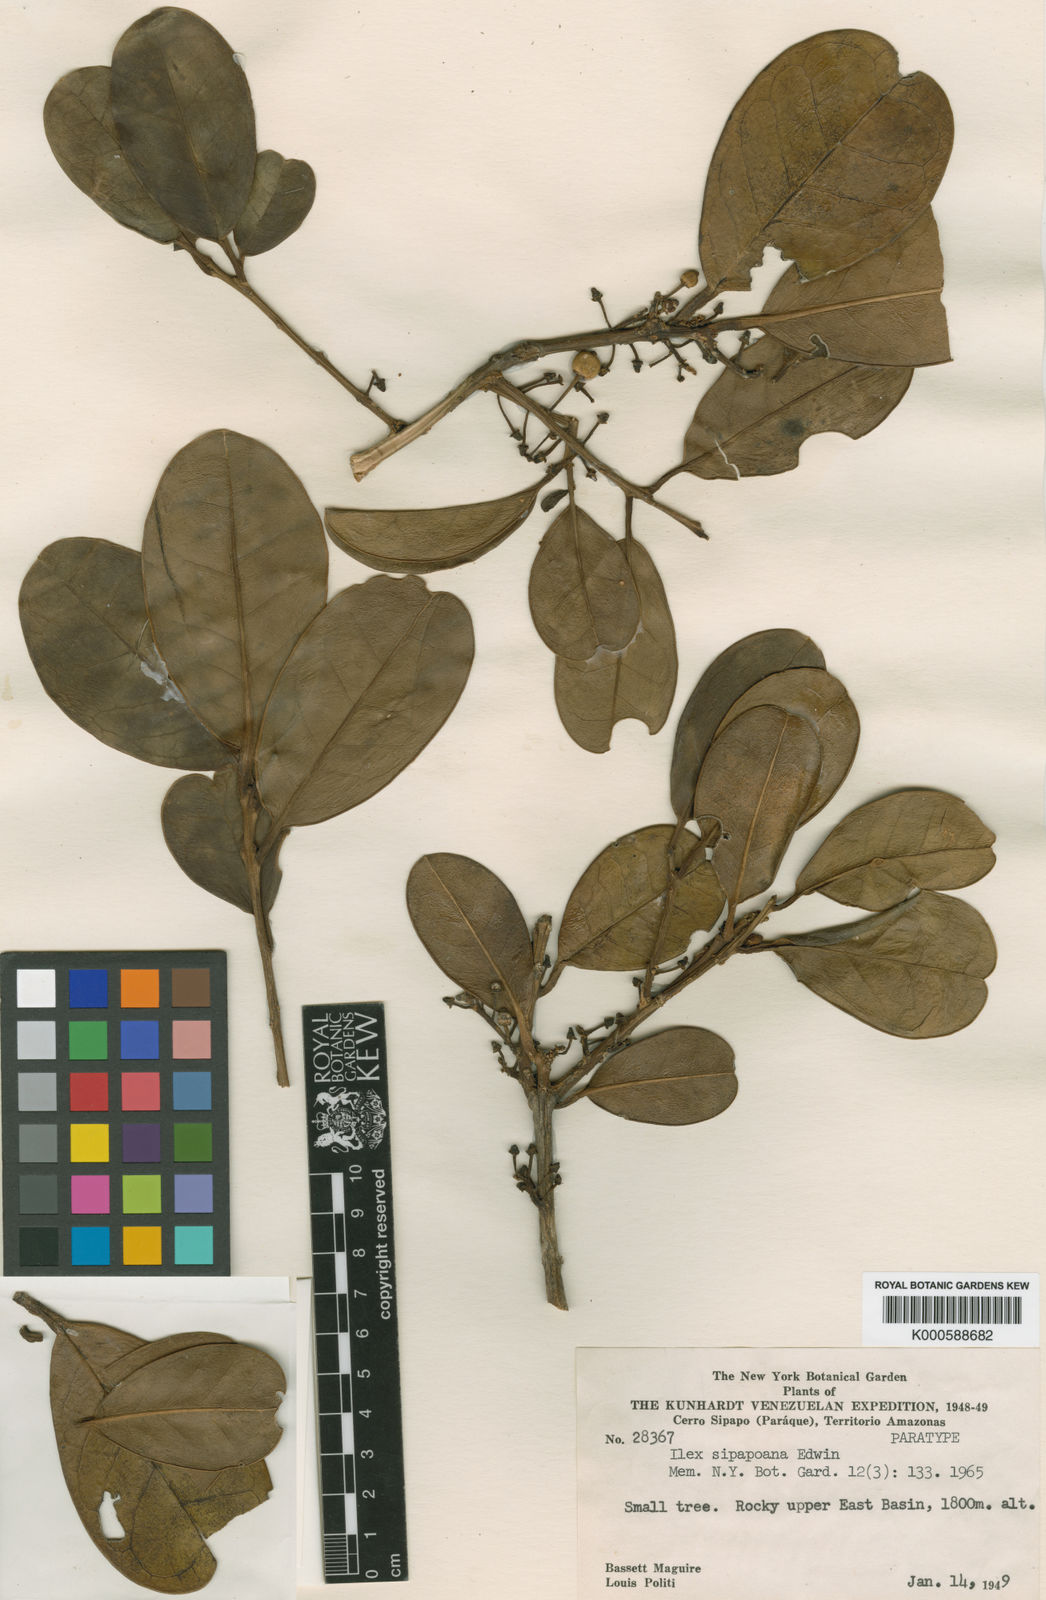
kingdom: Plantae
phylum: Tracheophyta
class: Magnoliopsida
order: Aquifoliales
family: Aquifoliaceae
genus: Ilex
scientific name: Ilex sipapoana
